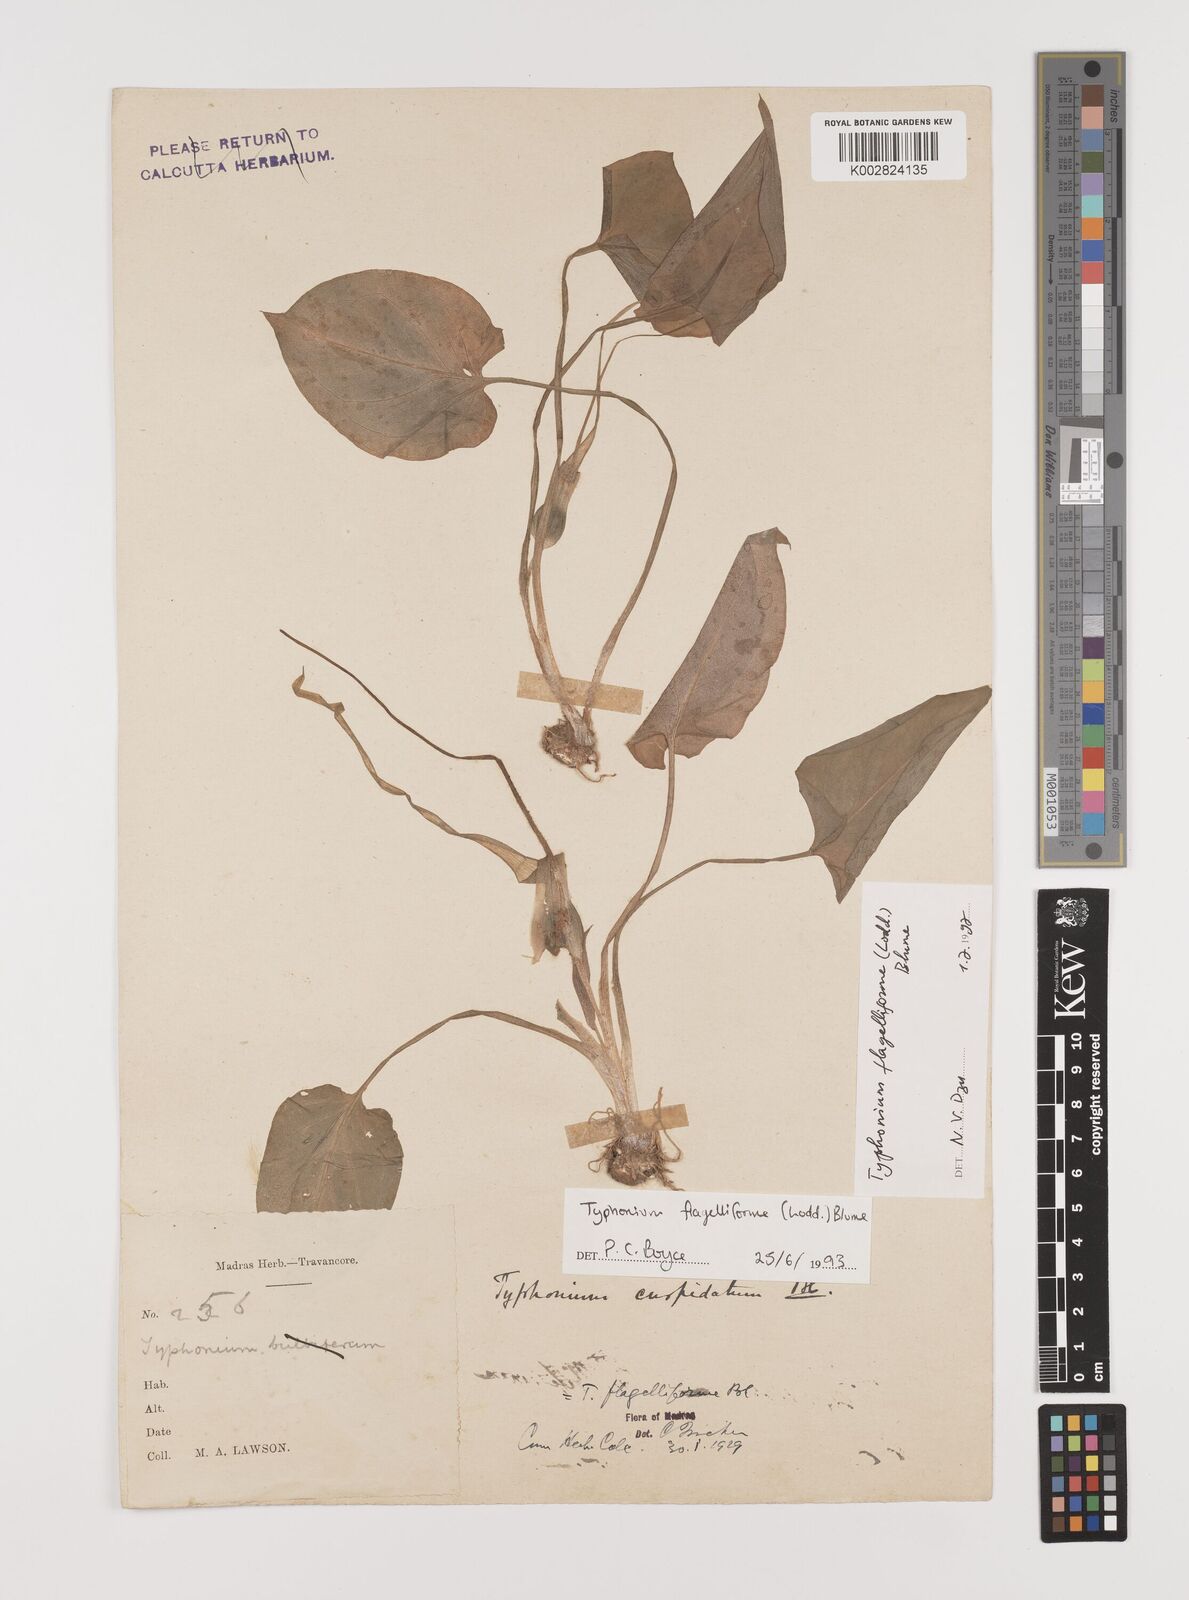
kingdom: Plantae
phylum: Tracheophyta
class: Liliopsida
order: Alismatales
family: Araceae
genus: Typhonium
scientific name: Typhonium flagelliforme
